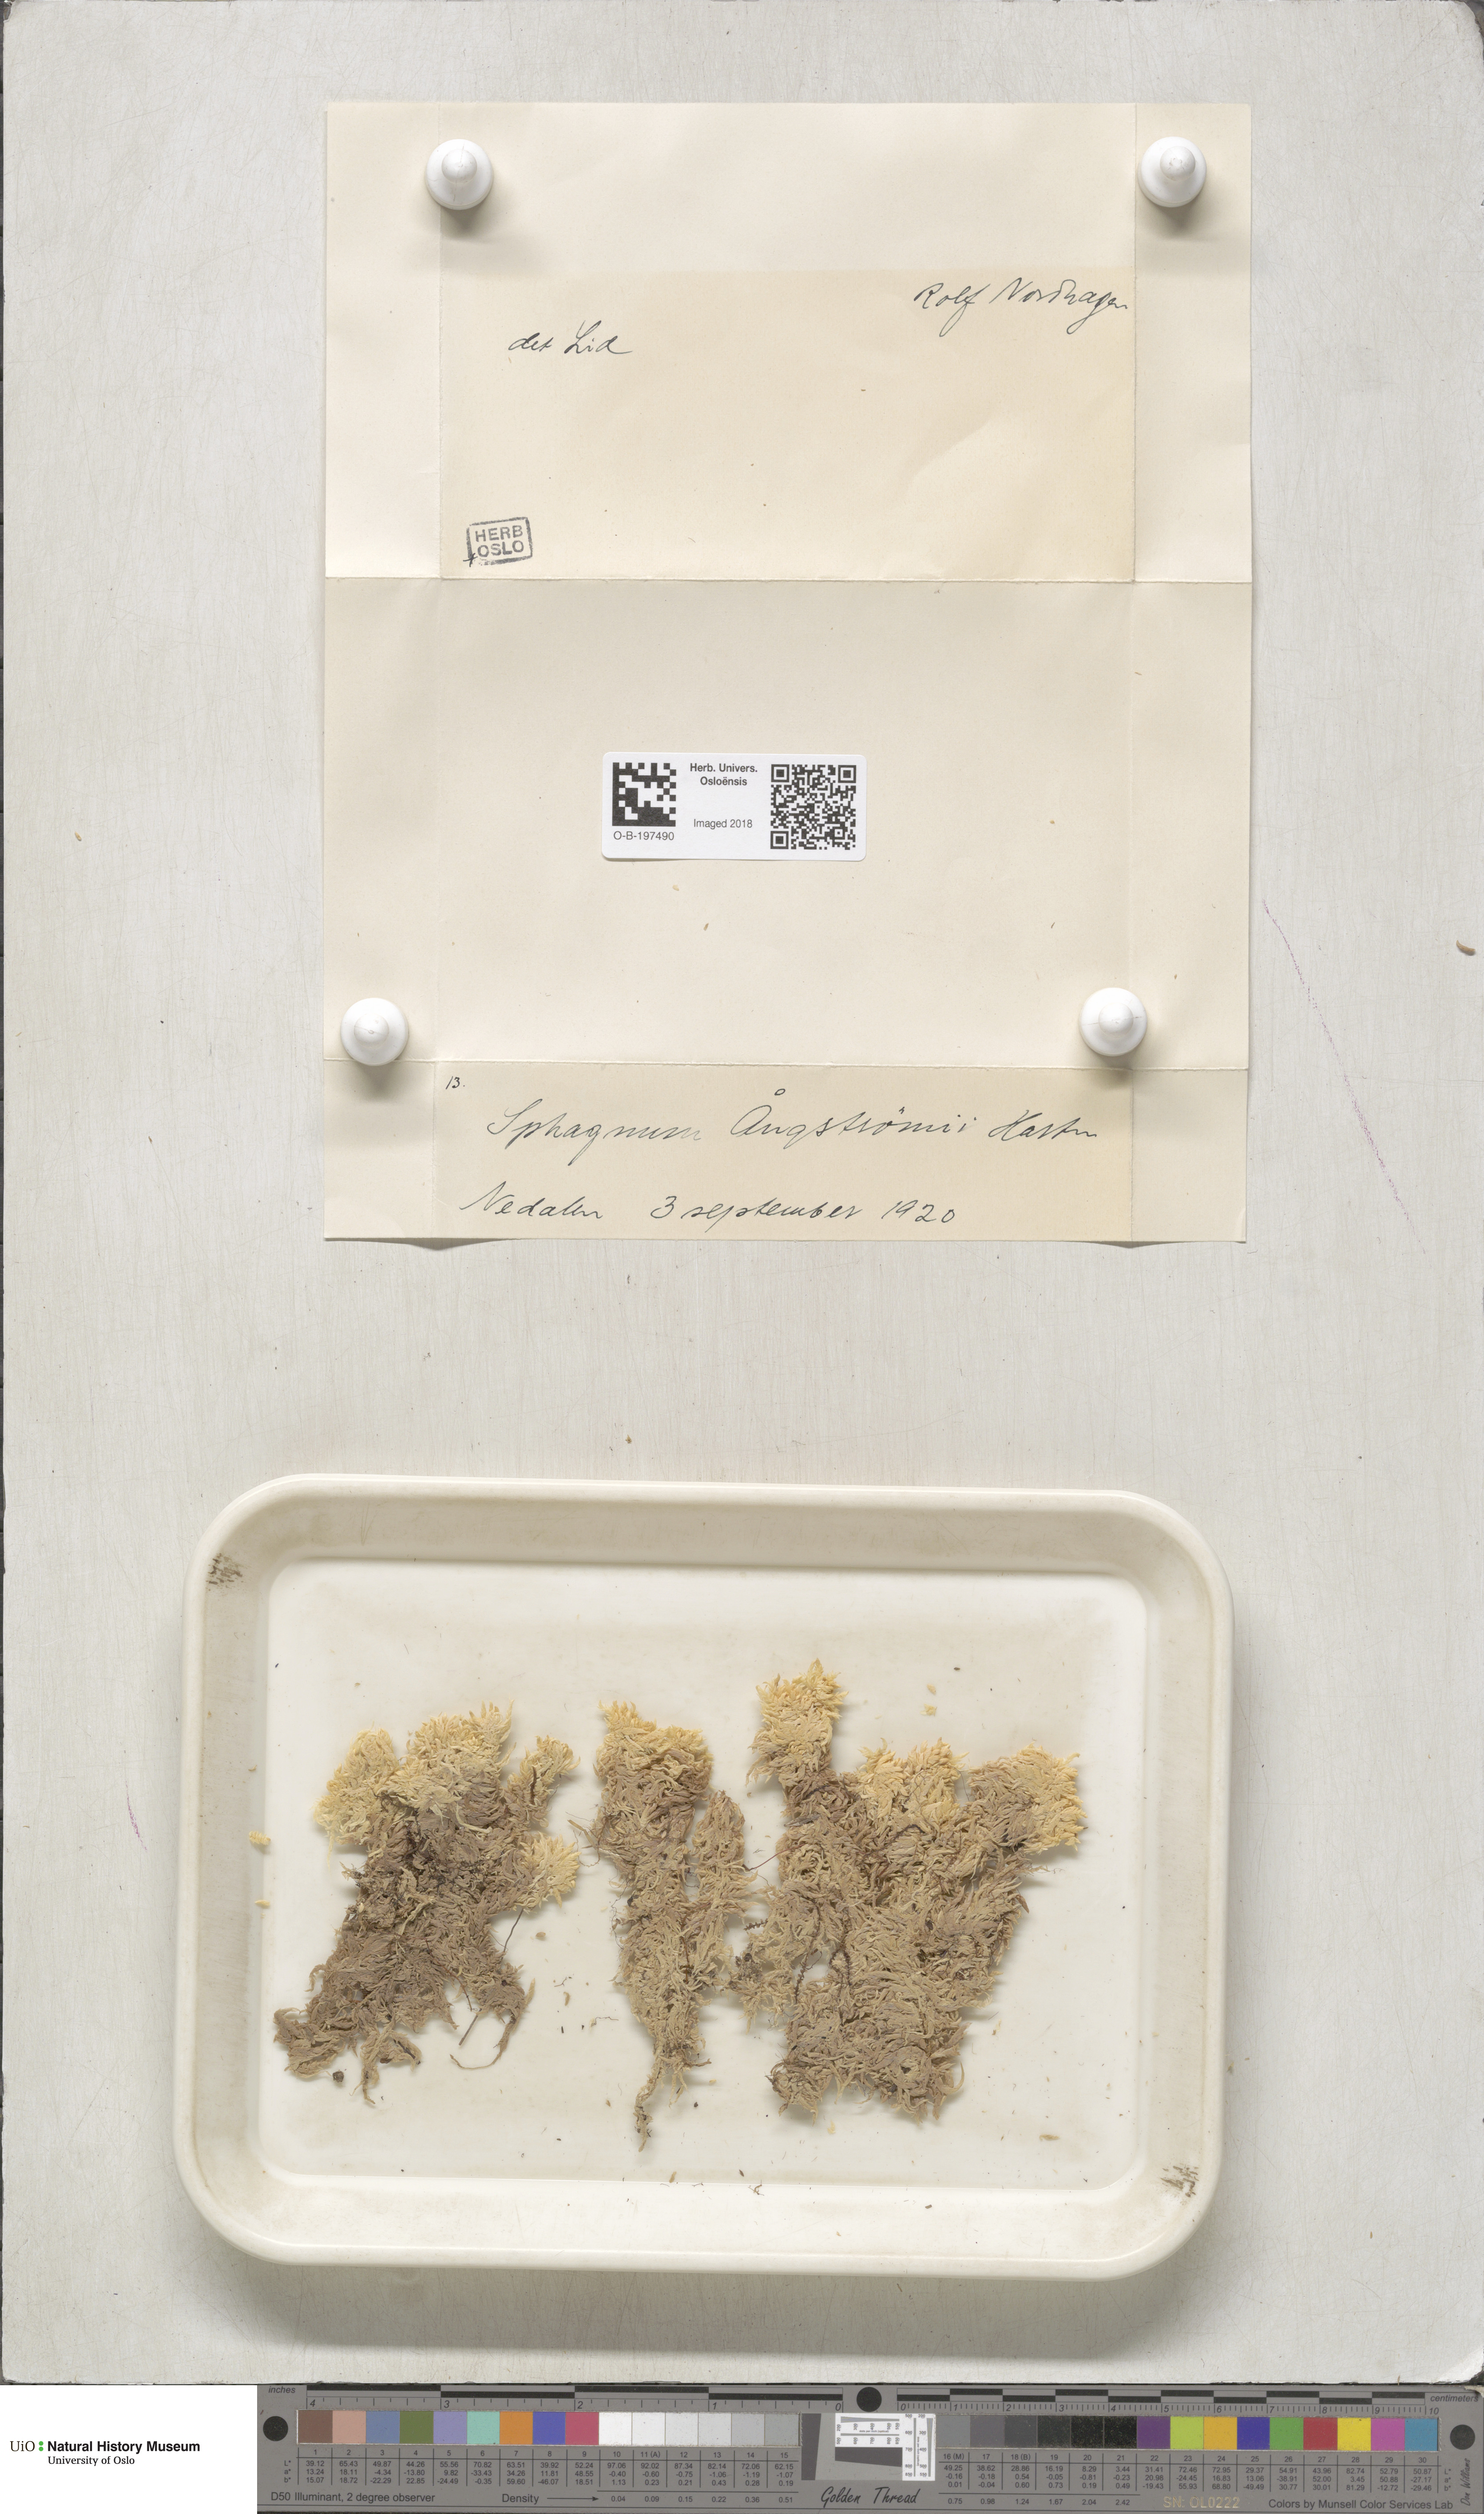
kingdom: Plantae
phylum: Bryophyta
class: Sphagnopsida
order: Sphagnales
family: Sphagnaceae
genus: Sphagnum
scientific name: Sphagnum aongstroemii
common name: Aongstroem's peat moss
